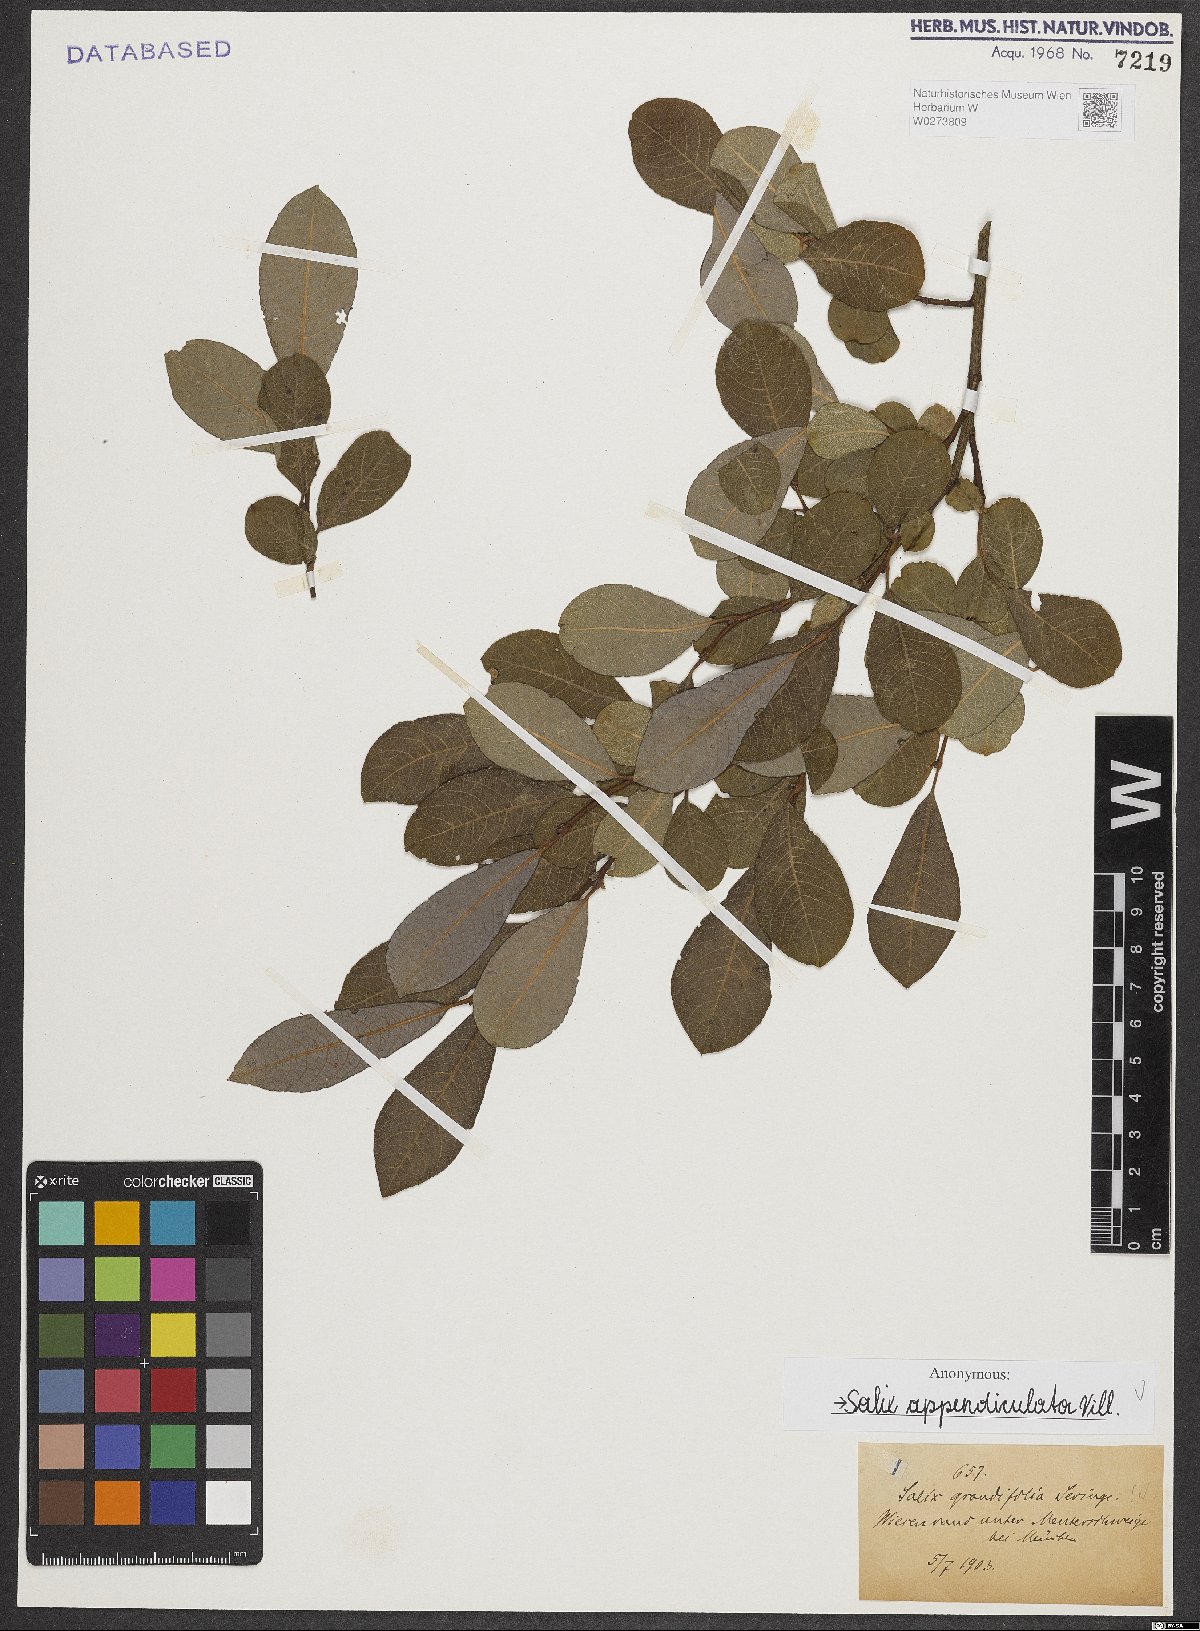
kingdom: Plantae
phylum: Tracheophyta
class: Magnoliopsida
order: Malpighiales
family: Salicaceae
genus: Salix
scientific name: Salix appendiculata
